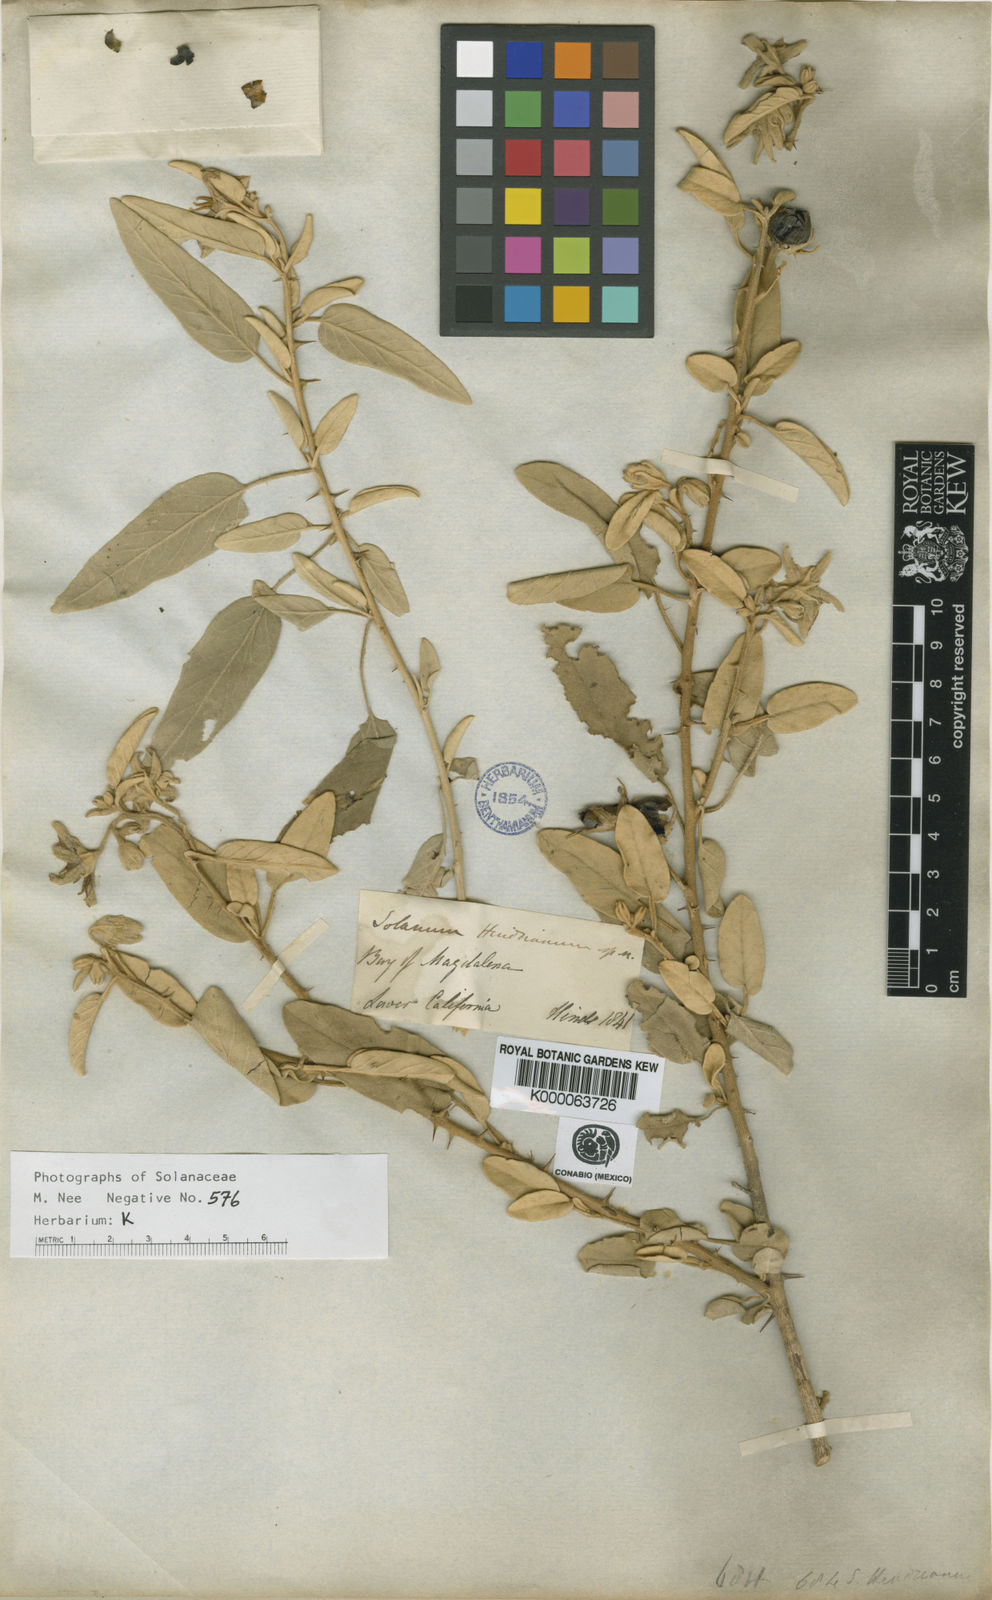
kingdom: Plantae
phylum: Tracheophyta
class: Magnoliopsida
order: Solanales
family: Solanaceae
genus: Solanum
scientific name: Solanum hindsianum
